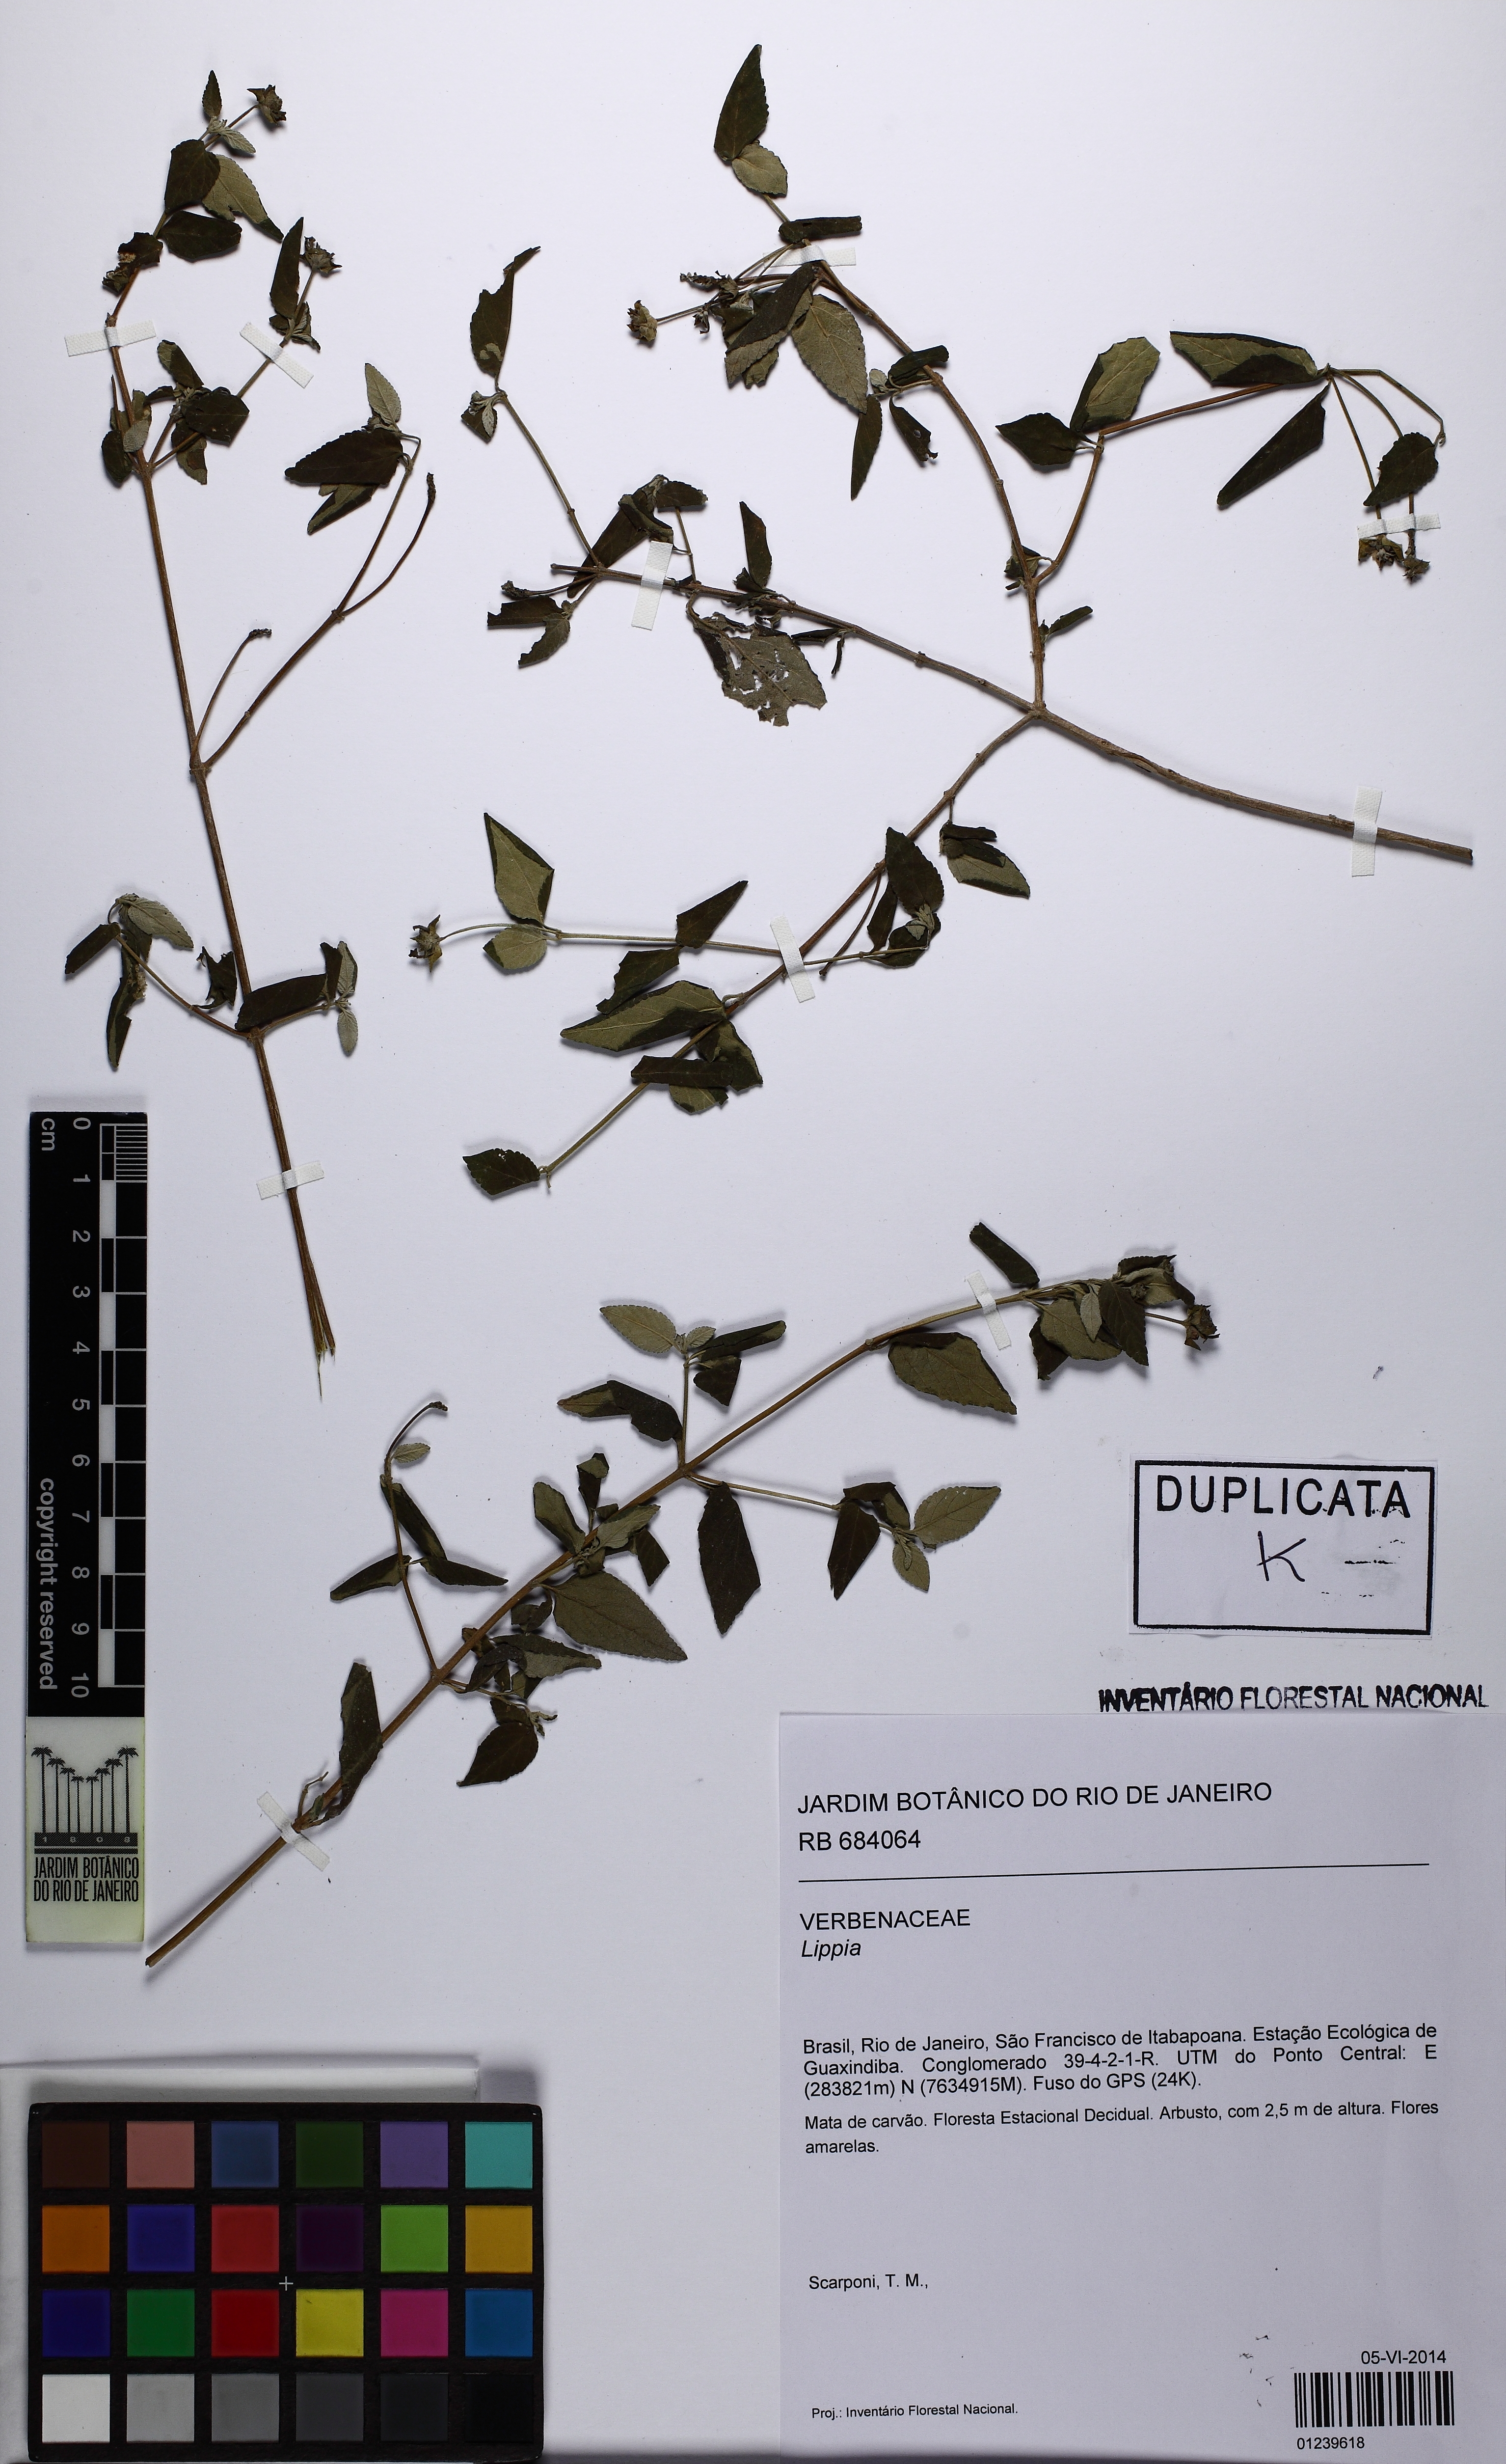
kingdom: Plantae
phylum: Tracheophyta
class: Magnoliopsida
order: Lamiales
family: Verbenaceae
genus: Lippia
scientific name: Lippia
